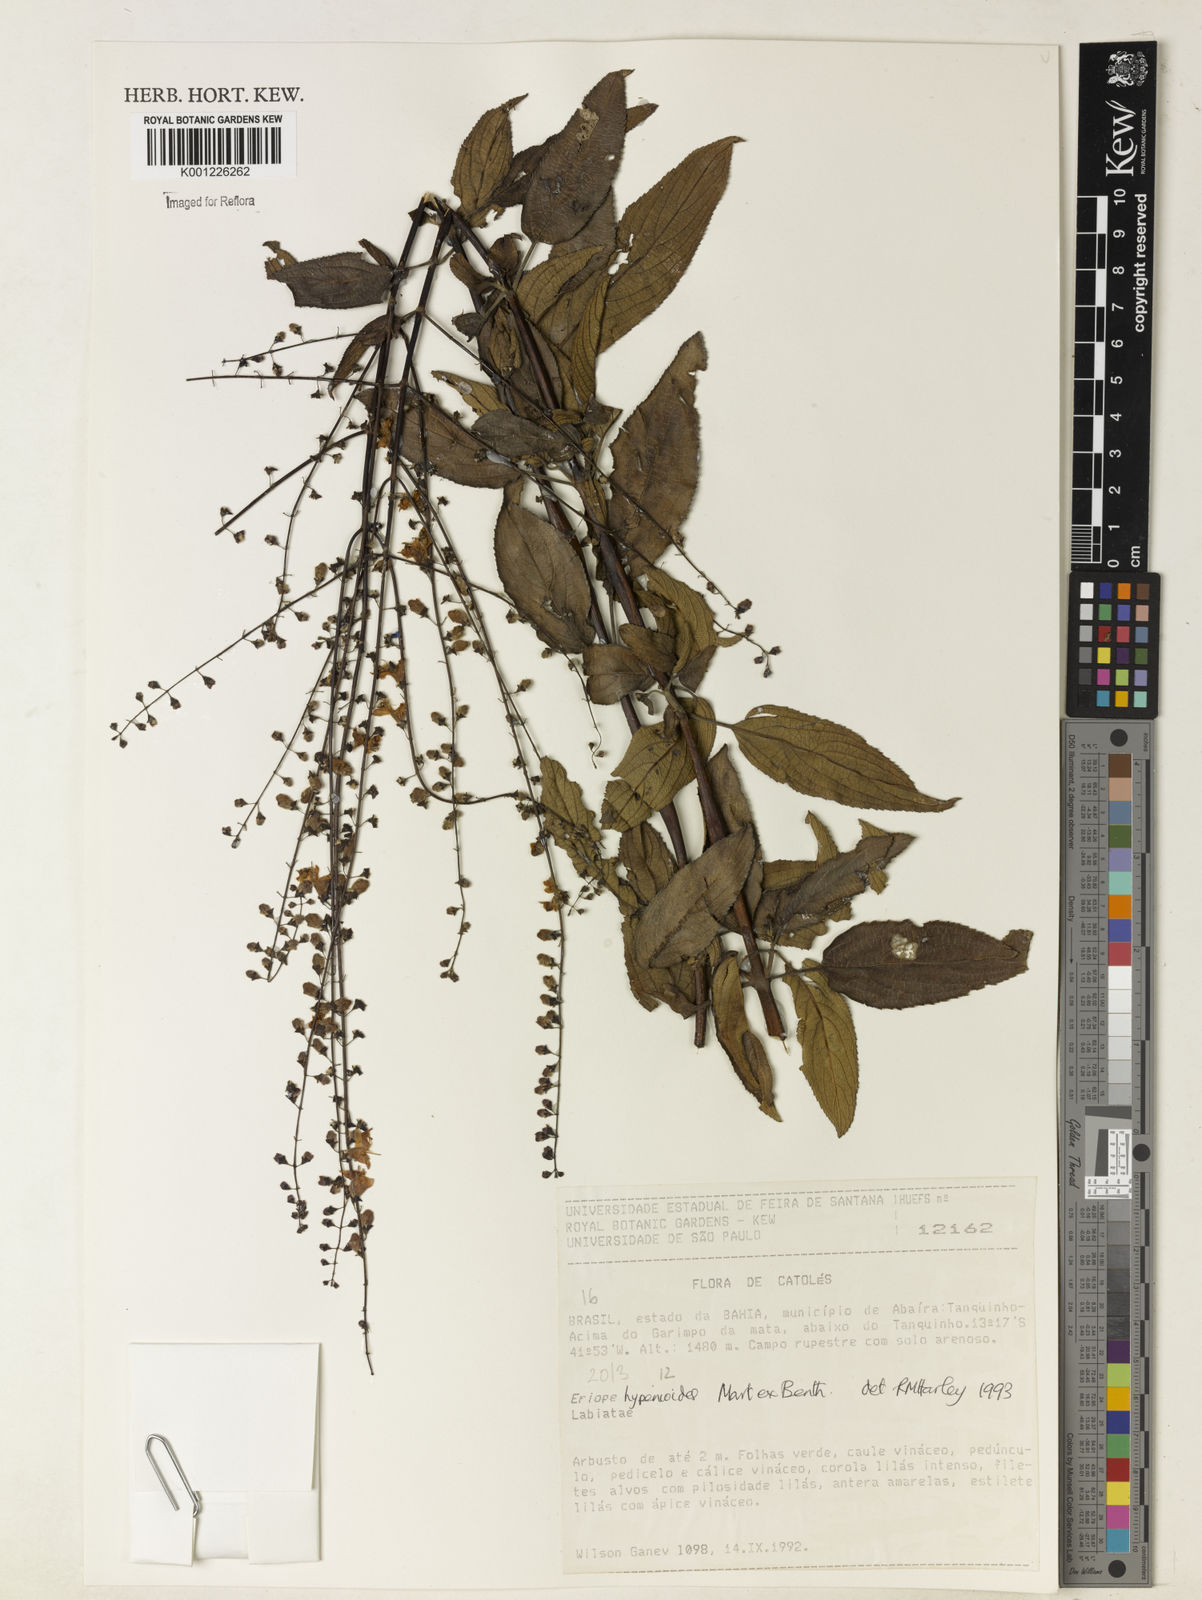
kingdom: Plantae
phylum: Tracheophyta
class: Magnoliopsida
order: Lamiales
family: Lamiaceae
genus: Eriope
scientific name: Eriope hypenioides
